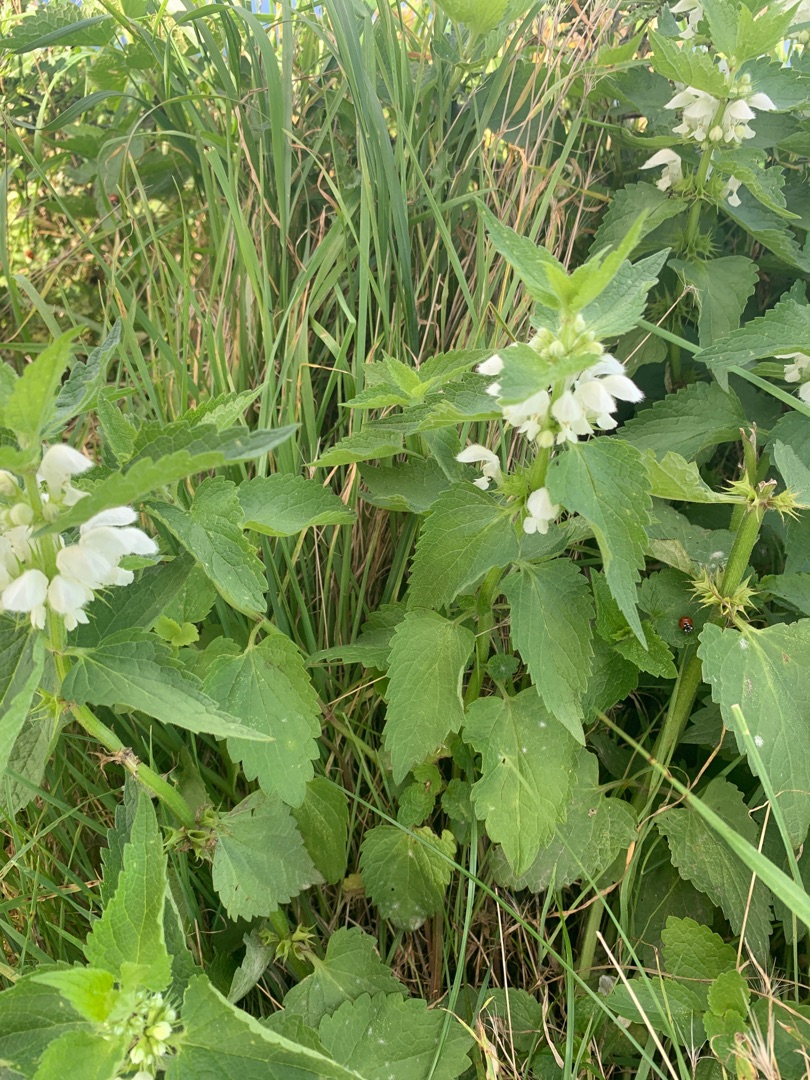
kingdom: Plantae
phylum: Tracheophyta
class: Magnoliopsida
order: Lamiales
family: Lamiaceae
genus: Lamium
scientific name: Lamium album
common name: Døvnælde
